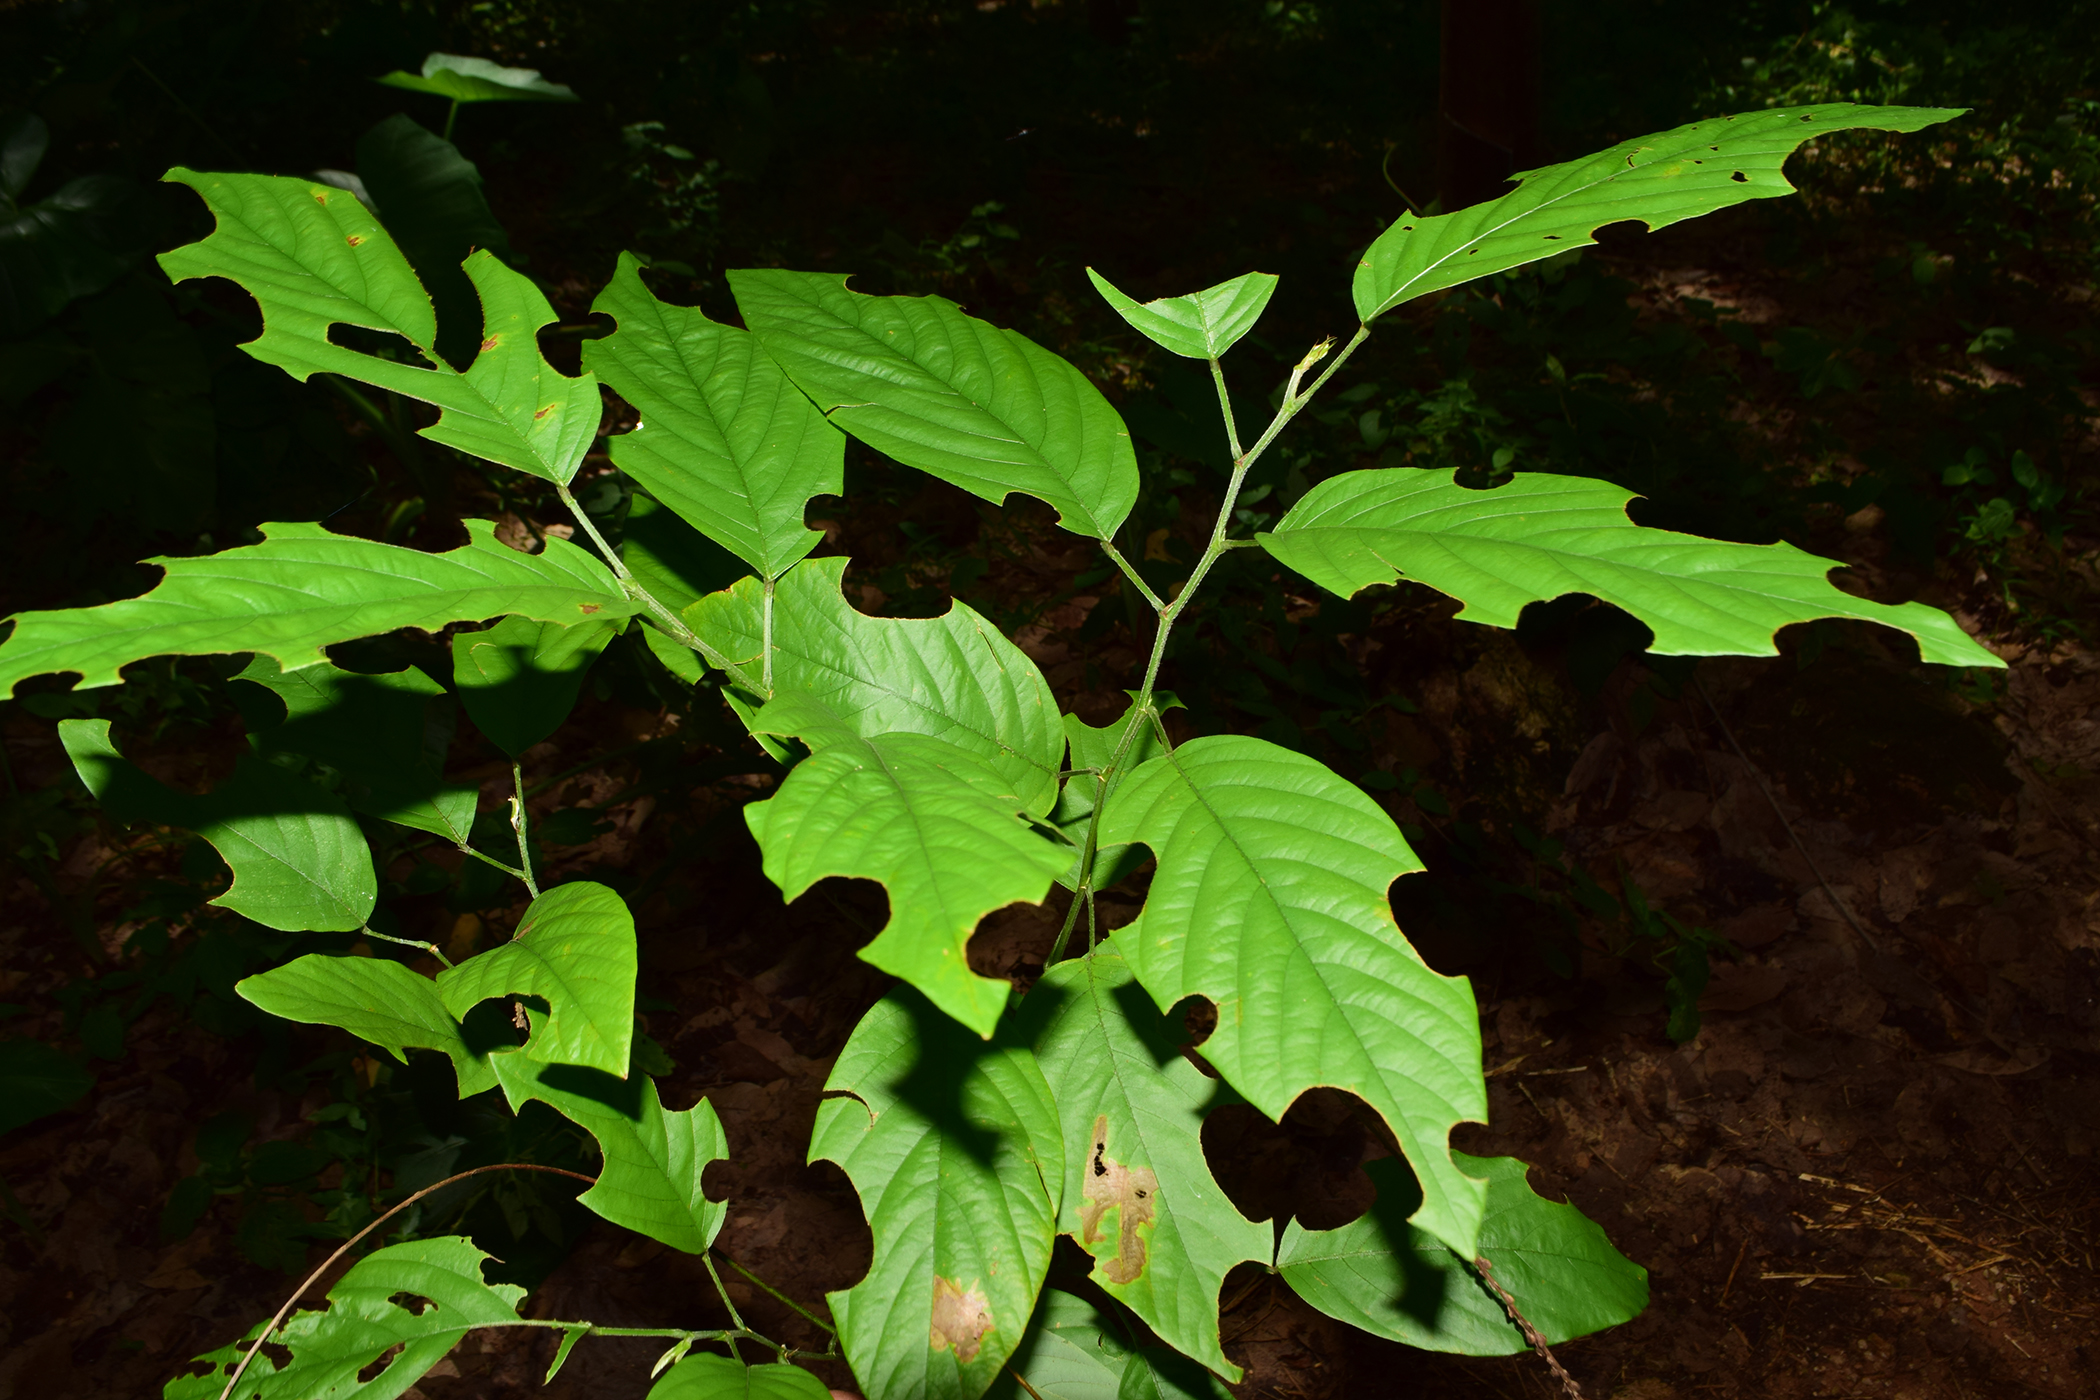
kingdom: Plantae
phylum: Tracheophyta
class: Magnoliopsida
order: Fabales
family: Fabaceae
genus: Pleurolobus
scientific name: Pleurolobus gangeticus
